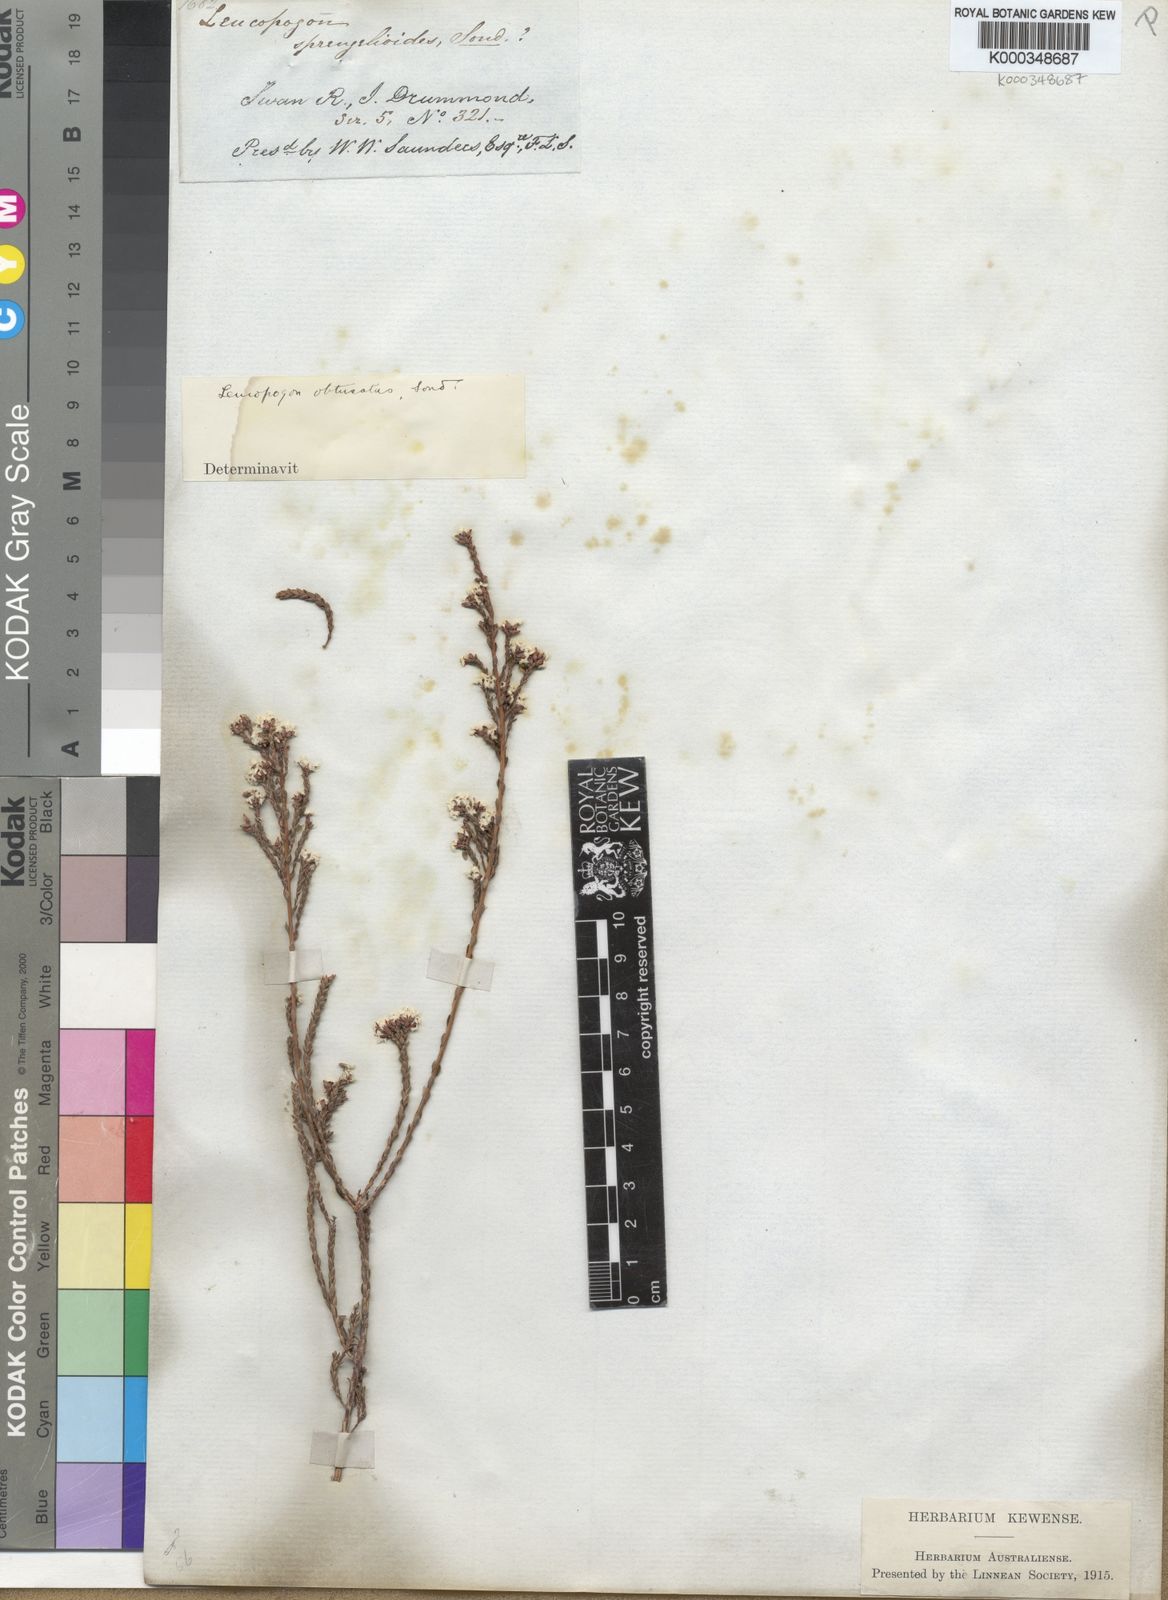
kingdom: Plantae
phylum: Tracheophyta
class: Magnoliopsida
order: Ericales
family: Ericaceae
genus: Leucopogon
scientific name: Leucopogon obtusatus
